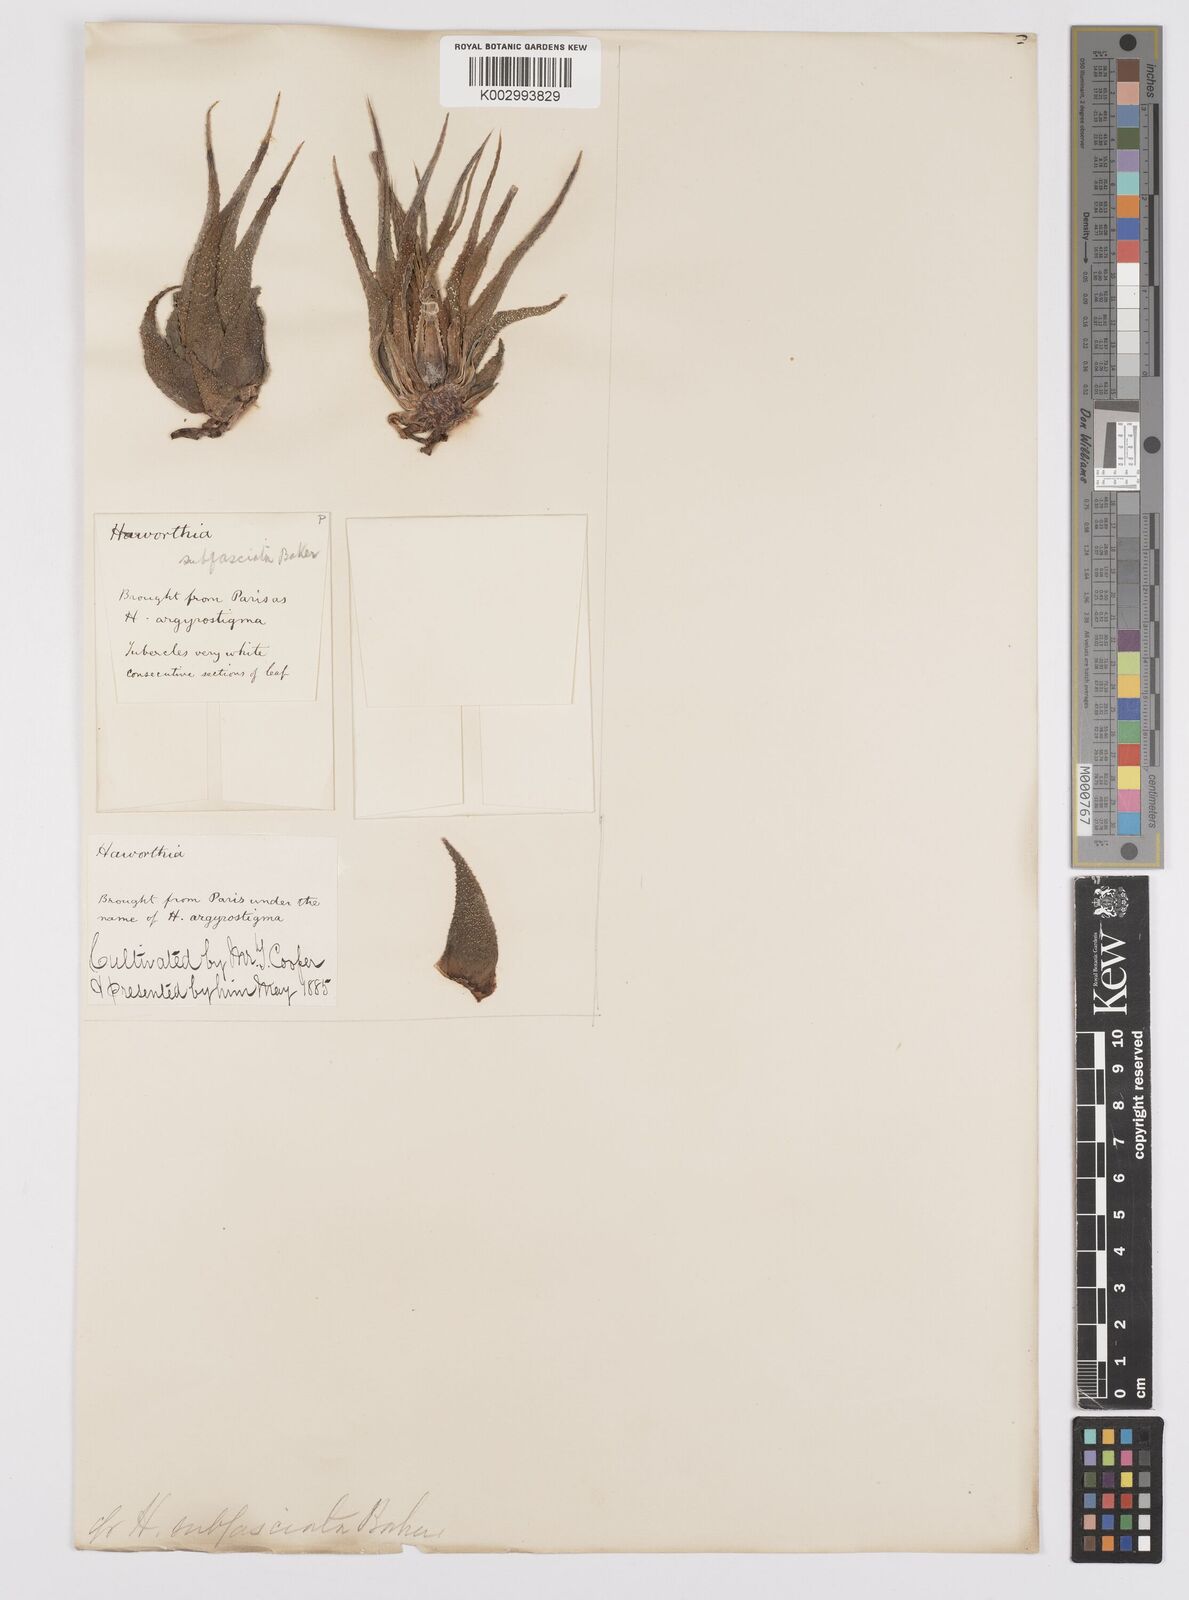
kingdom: Plantae
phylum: Tracheophyta
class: Liliopsida
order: Asparagales
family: Asphodelaceae
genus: Haworthiopsis
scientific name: Haworthiopsis attenuata
